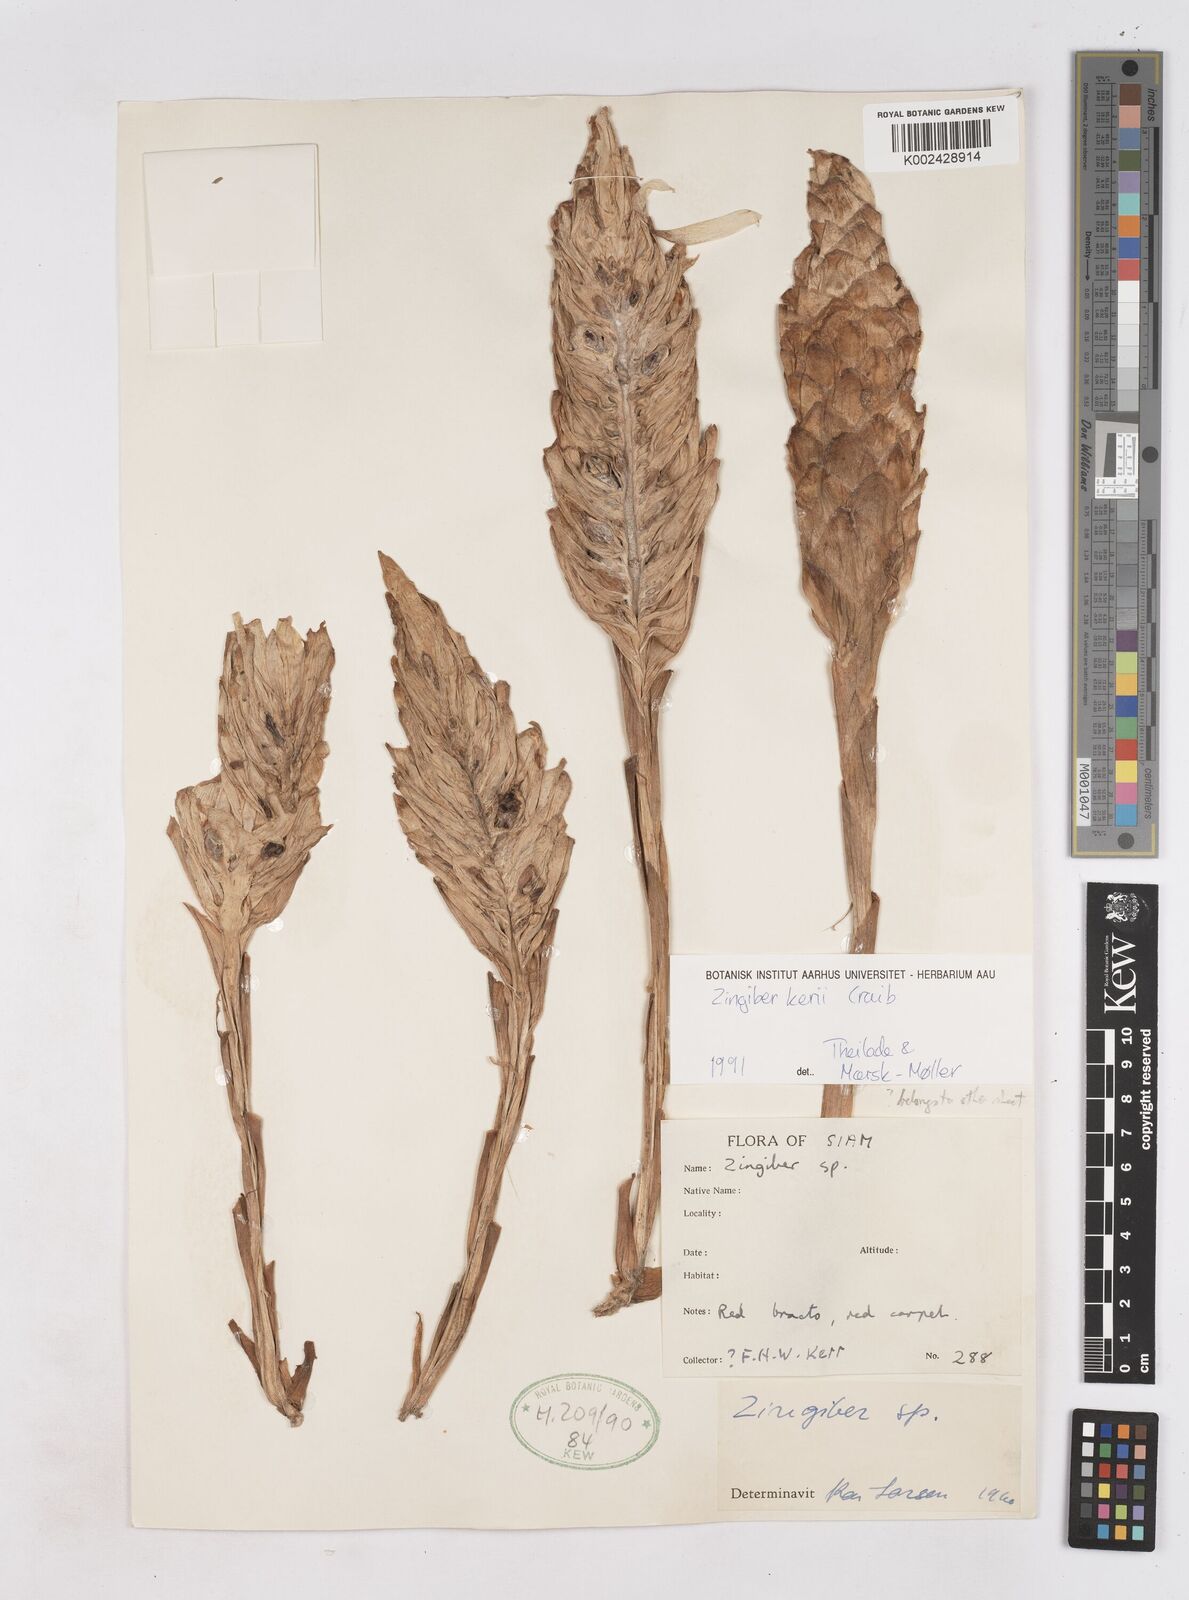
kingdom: Plantae
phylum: Tracheophyta
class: Liliopsida
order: Zingiberales
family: Zingiberaceae
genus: Zingiber
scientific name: Zingiber kerrii
